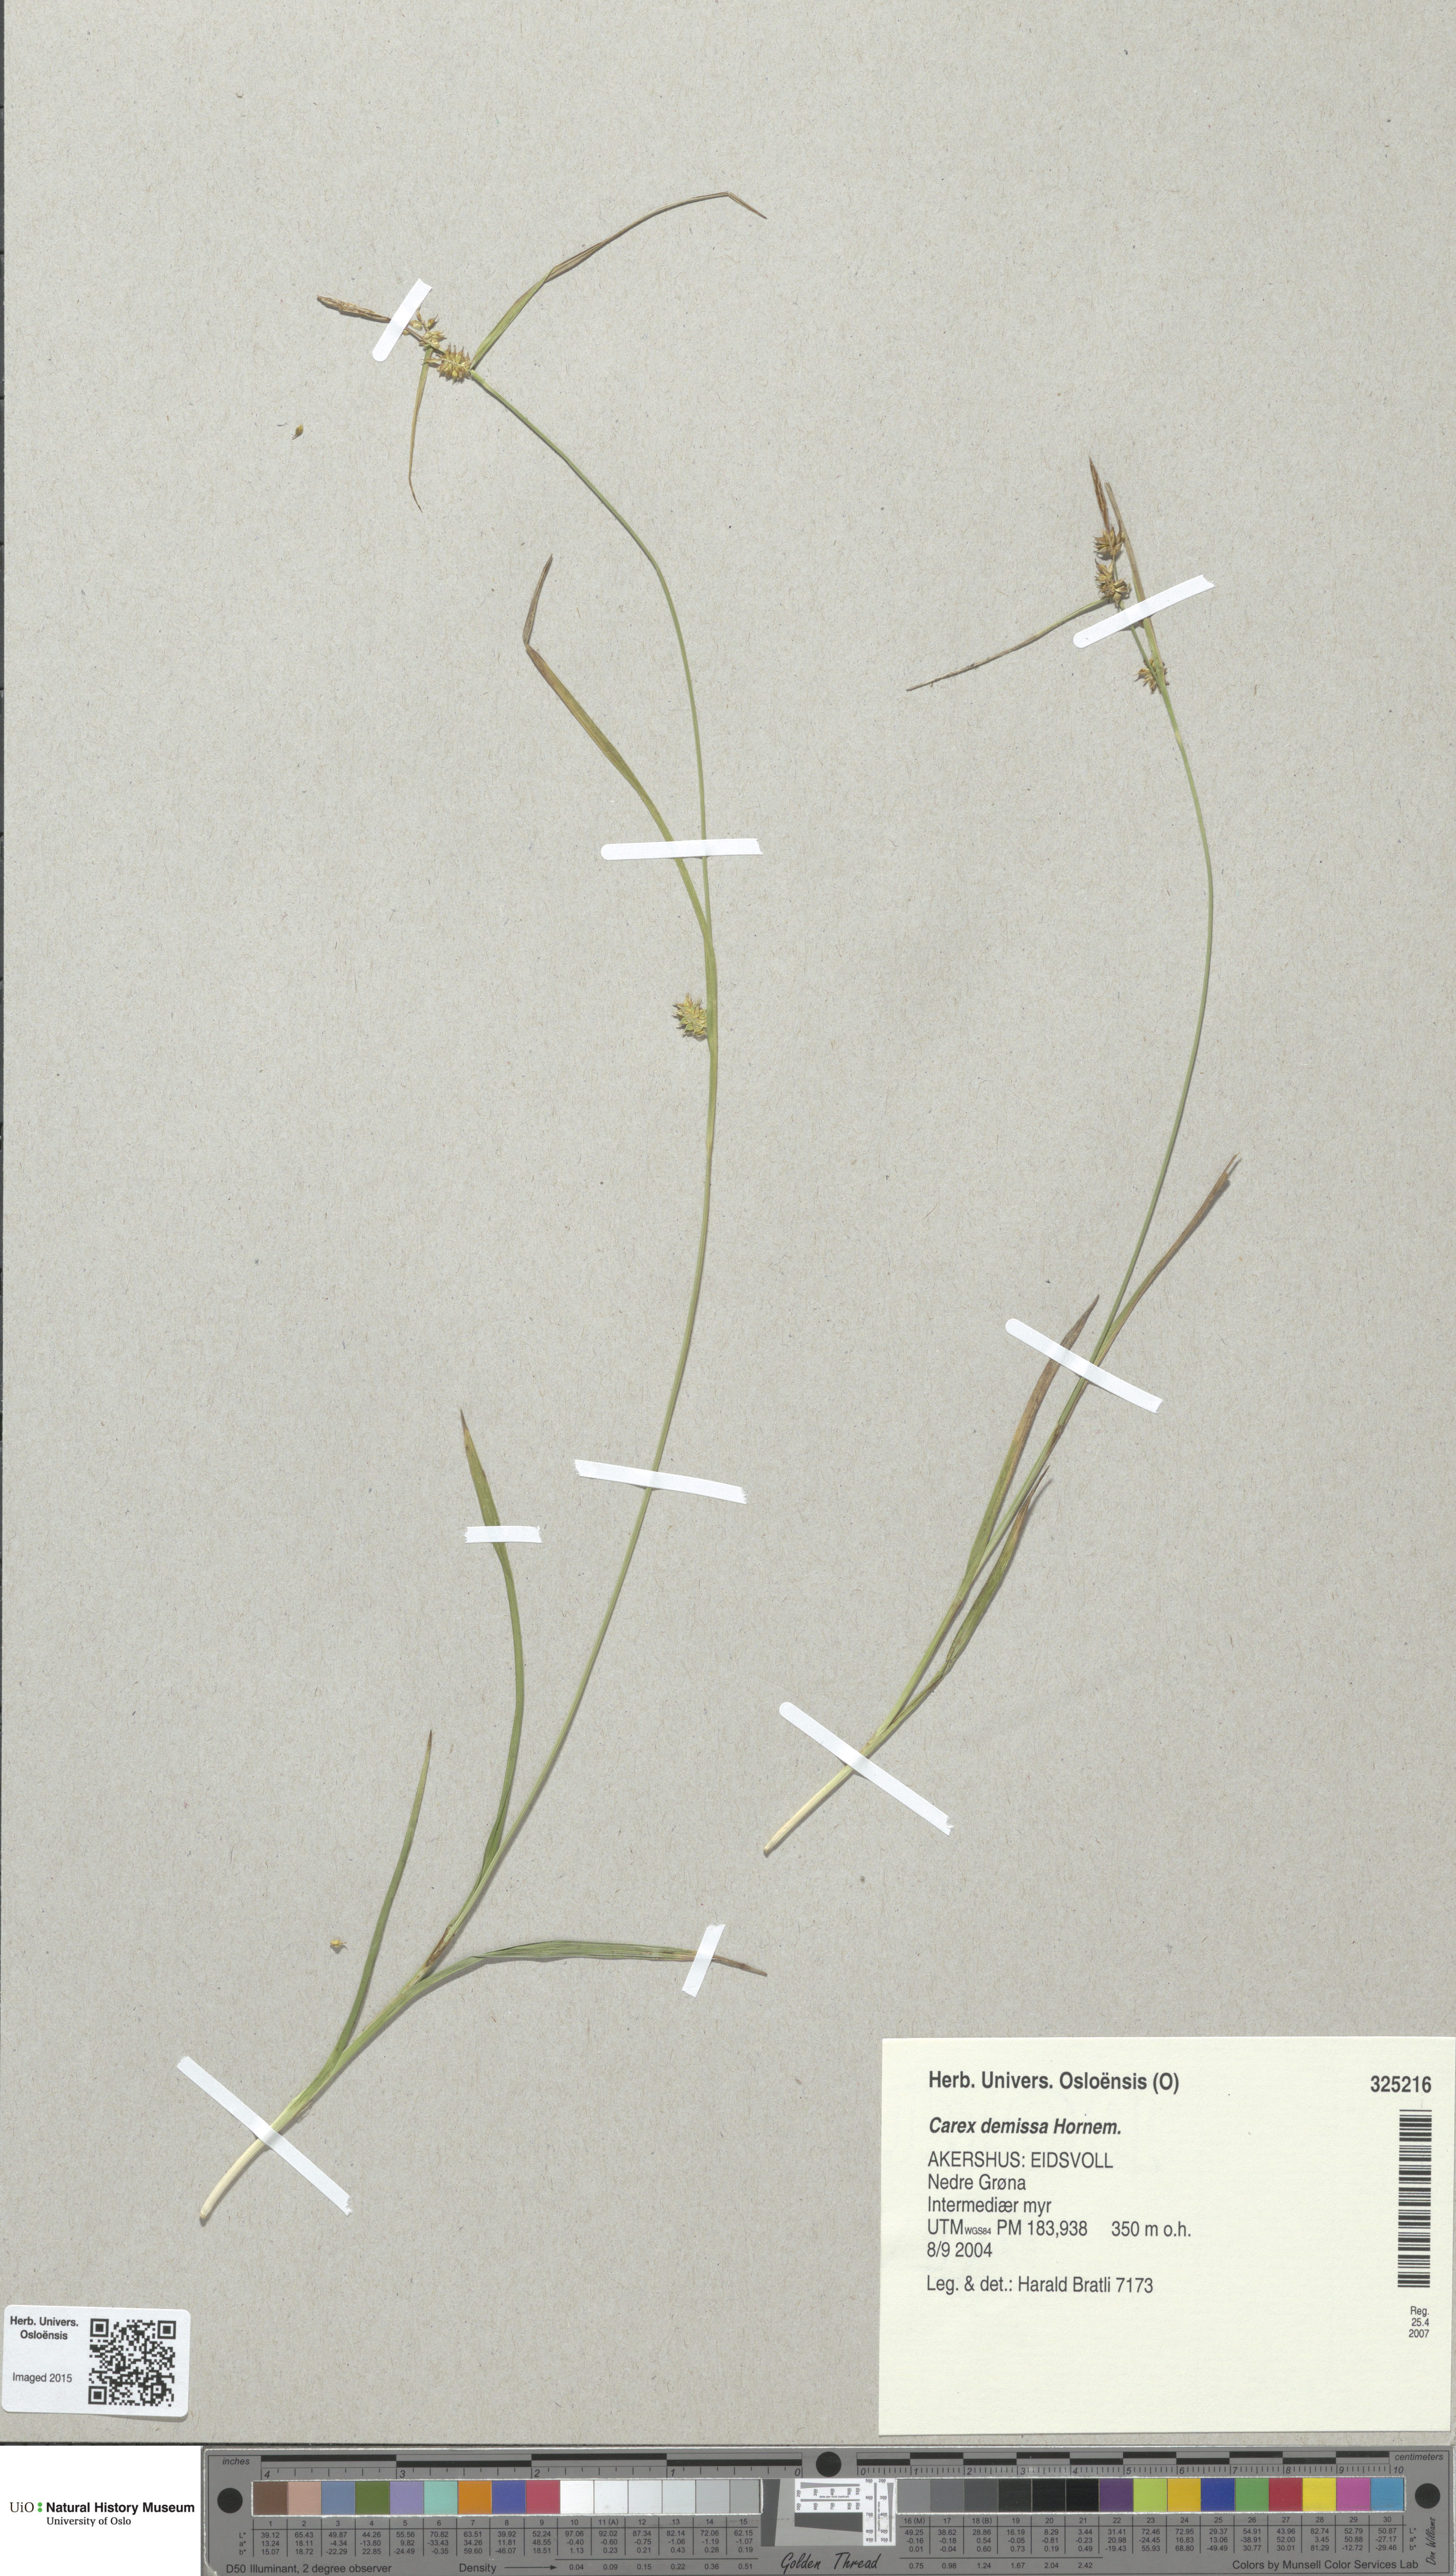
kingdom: Plantae
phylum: Tracheophyta
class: Liliopsida
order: Poales
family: Cyperaceae
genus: Carex
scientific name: Carex demissa
